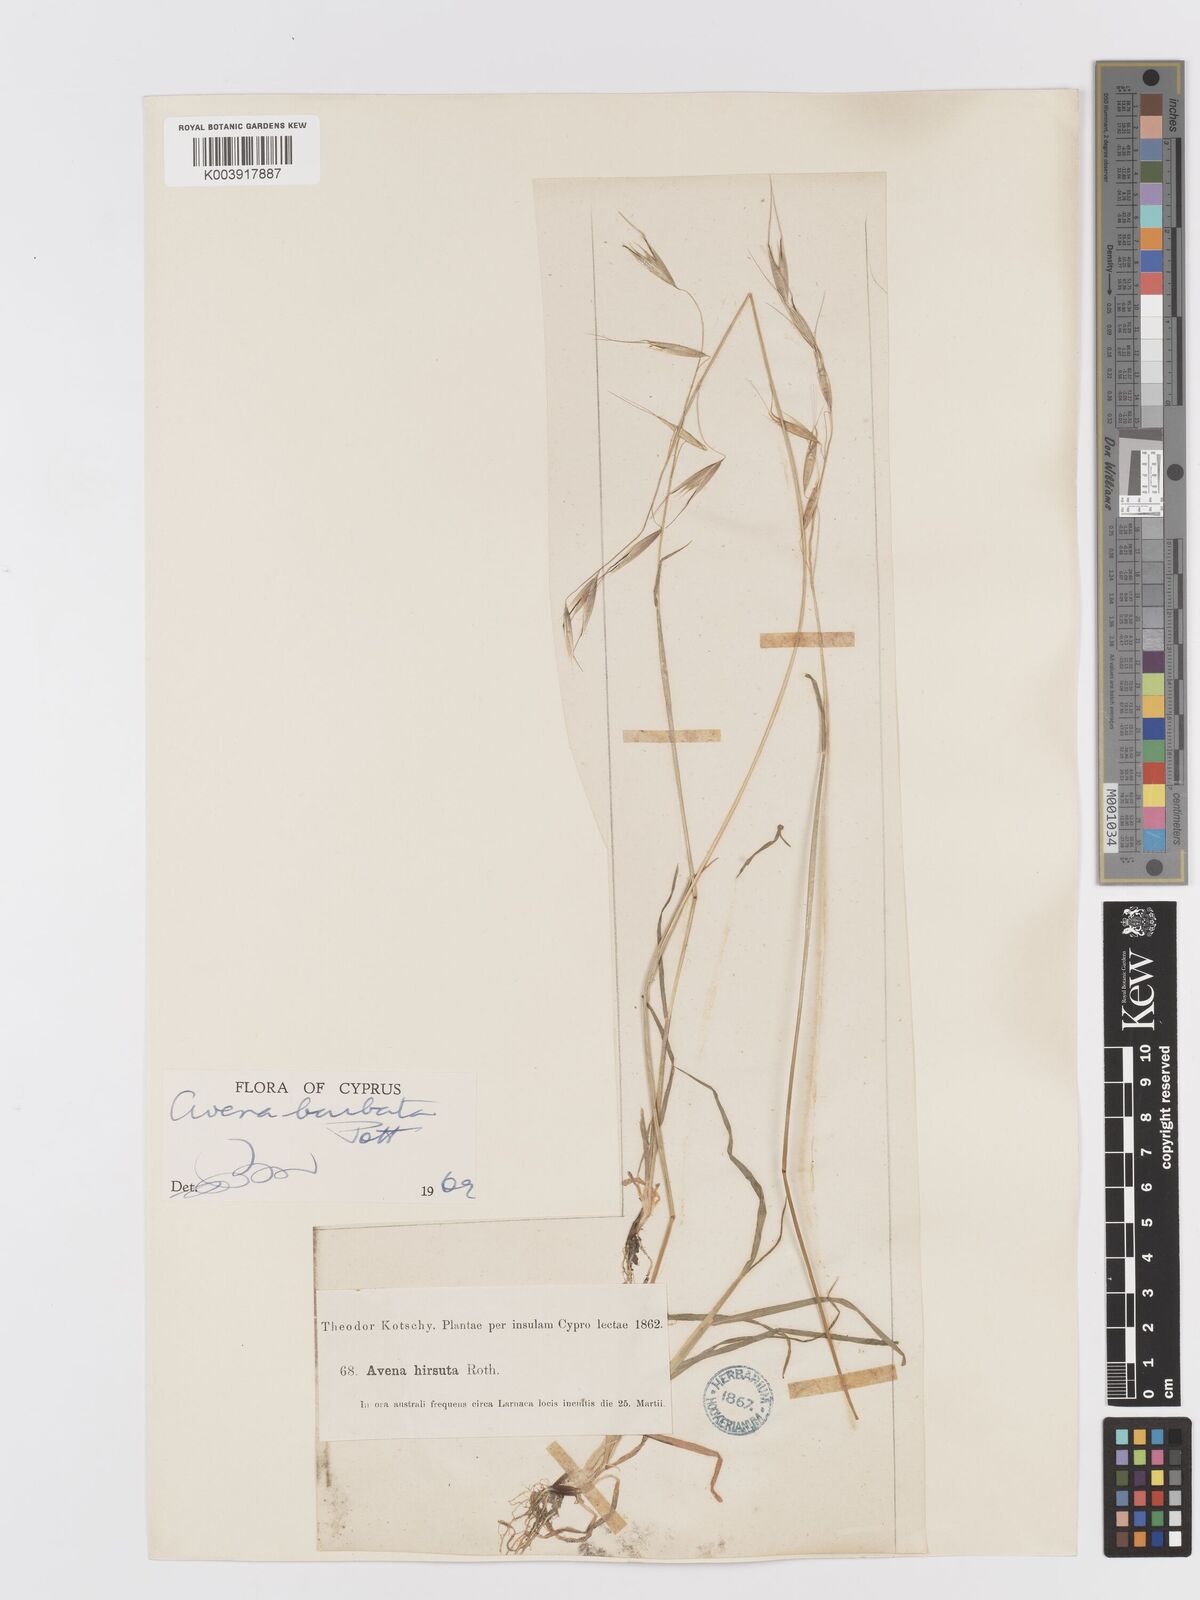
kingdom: Plantae
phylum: Tracheophyta
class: Liliopsida
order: Poales
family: Poaceae
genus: Avena
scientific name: Avena
